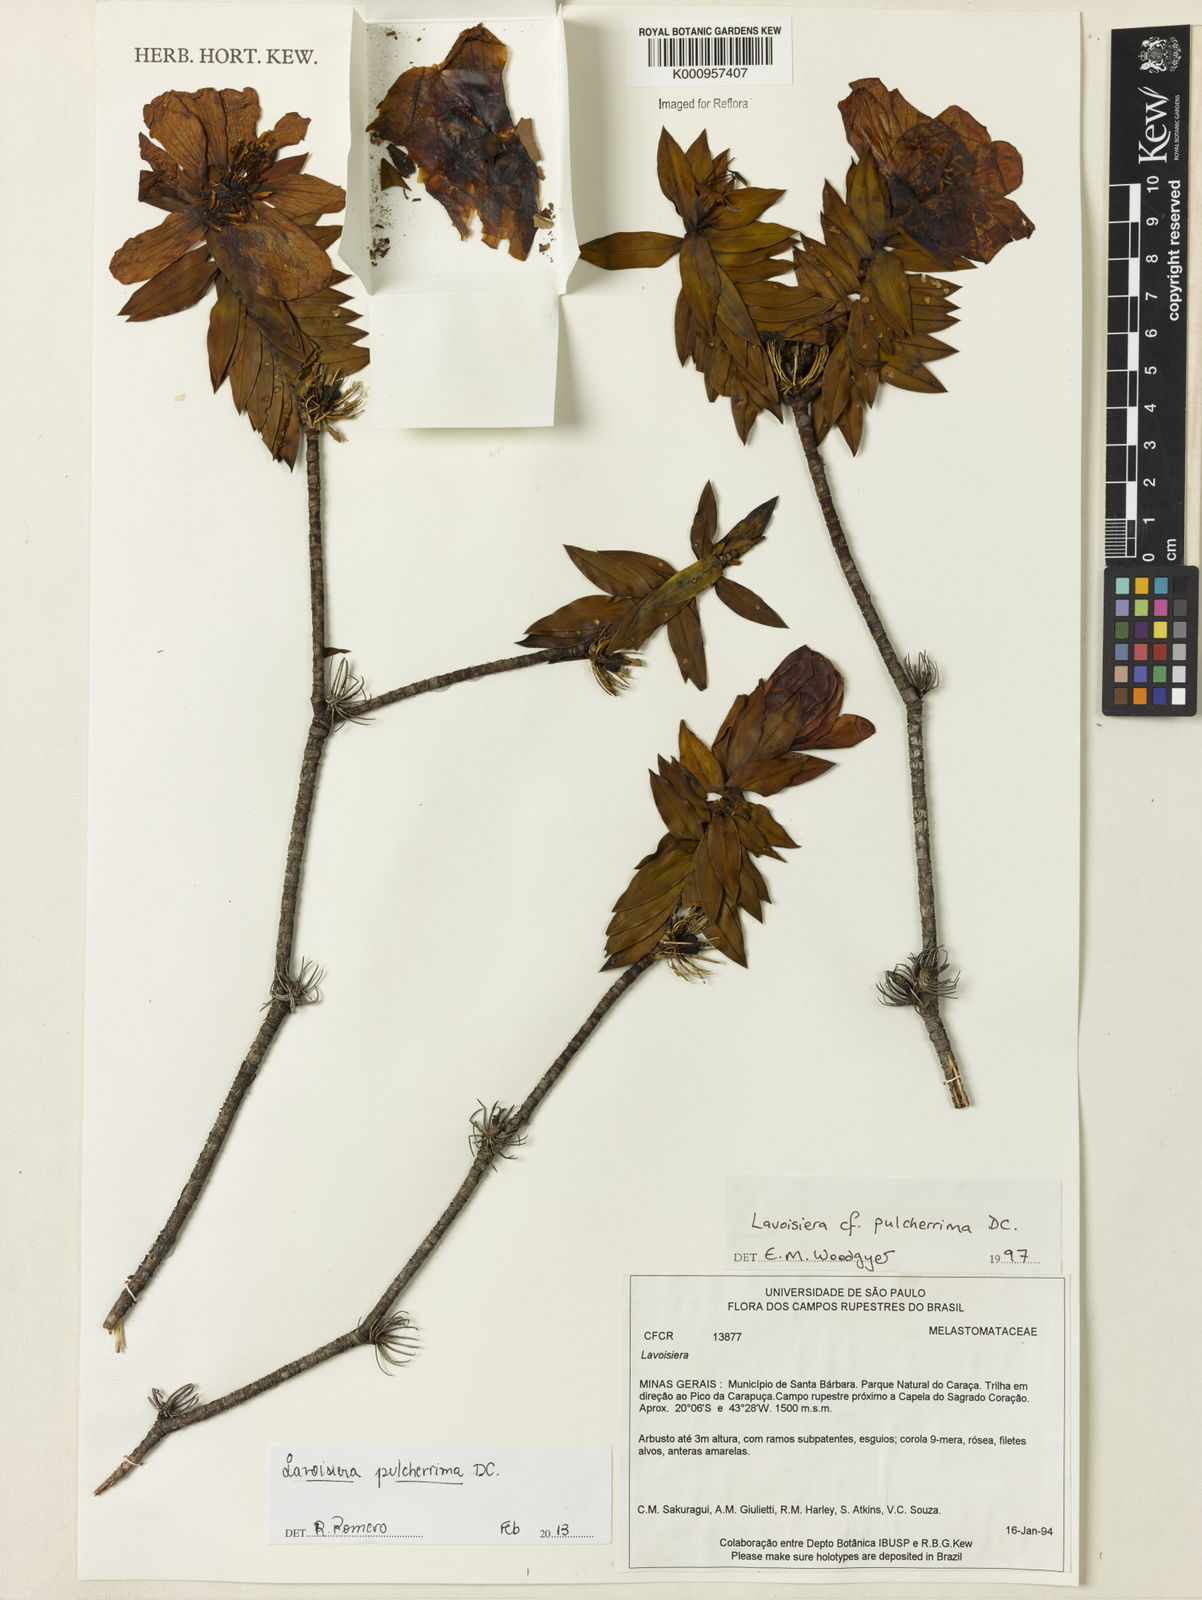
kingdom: Plantae
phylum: Tracheophyta
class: Magnoliopsida
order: Myrtales
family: Melastomataceae
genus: Microlicia
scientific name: Microlicia pulcherrima
